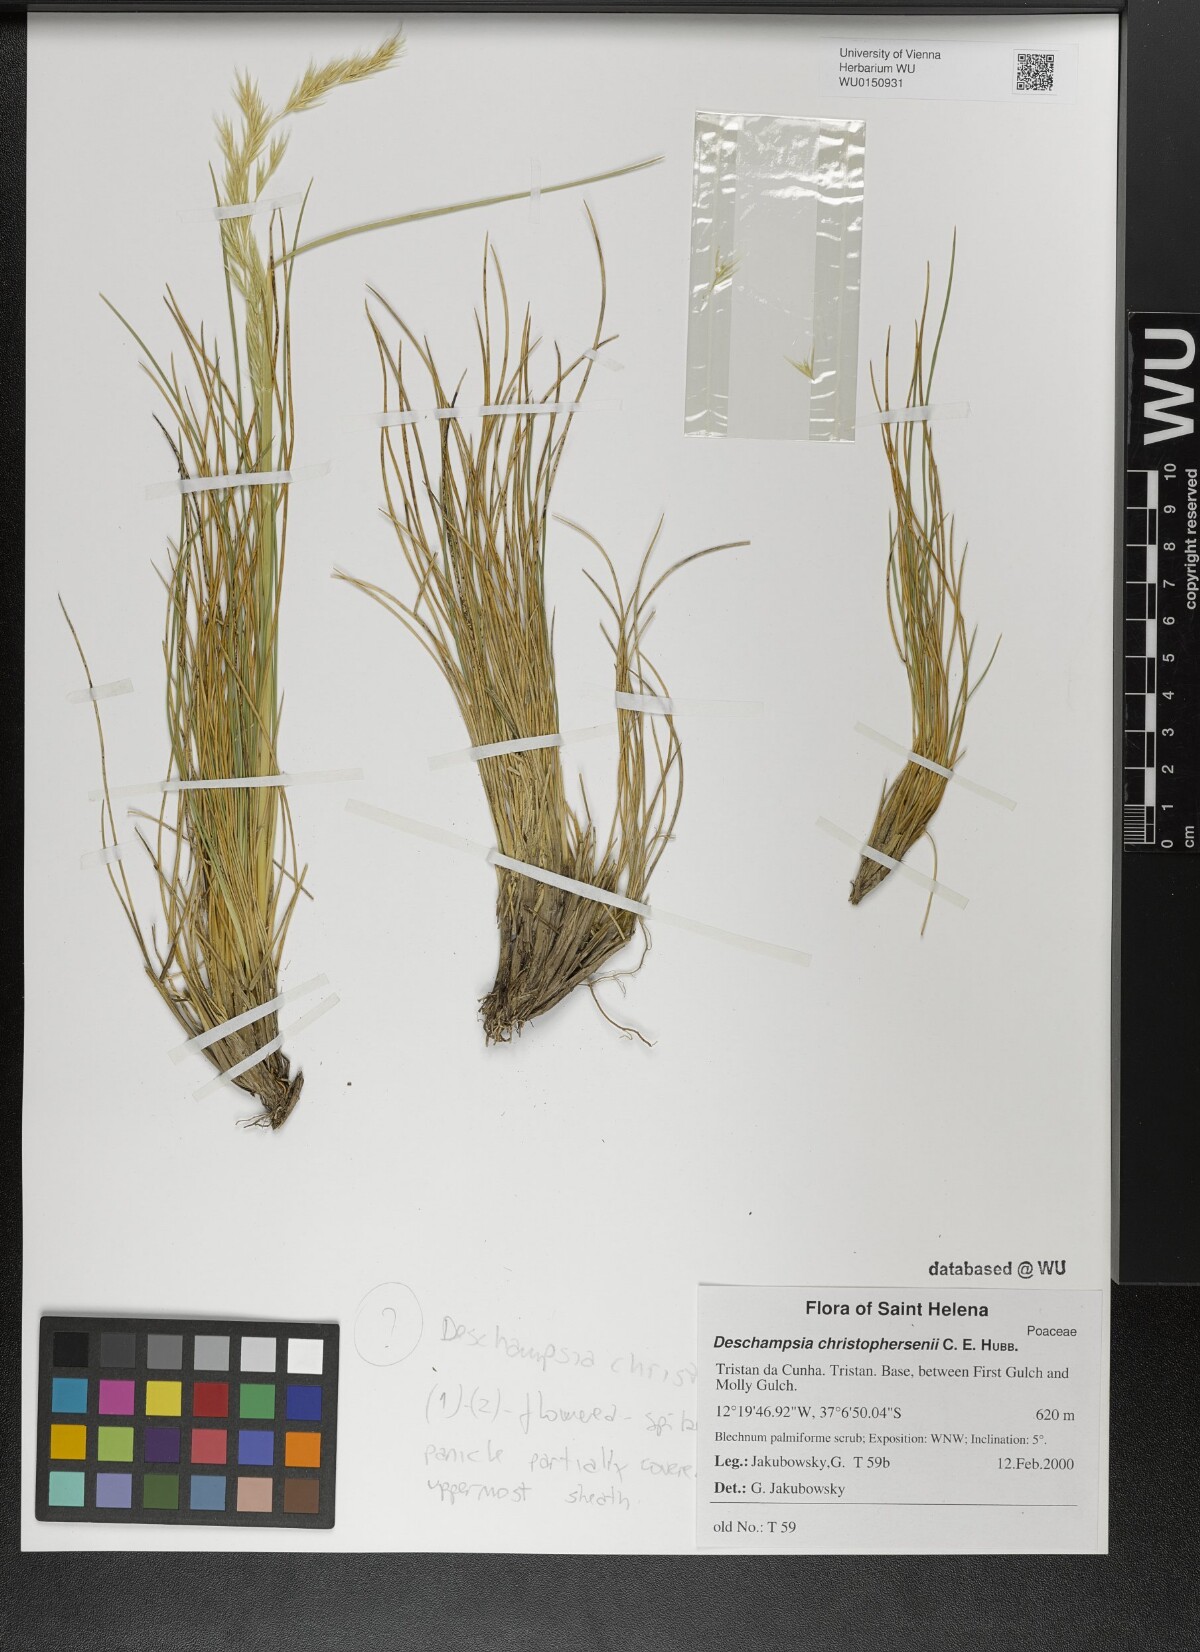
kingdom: Plantae
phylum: Tracheophyta
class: Liliopsida
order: Poales
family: Poaceae
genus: Deschampsia
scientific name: Deschampsia christophersenii
